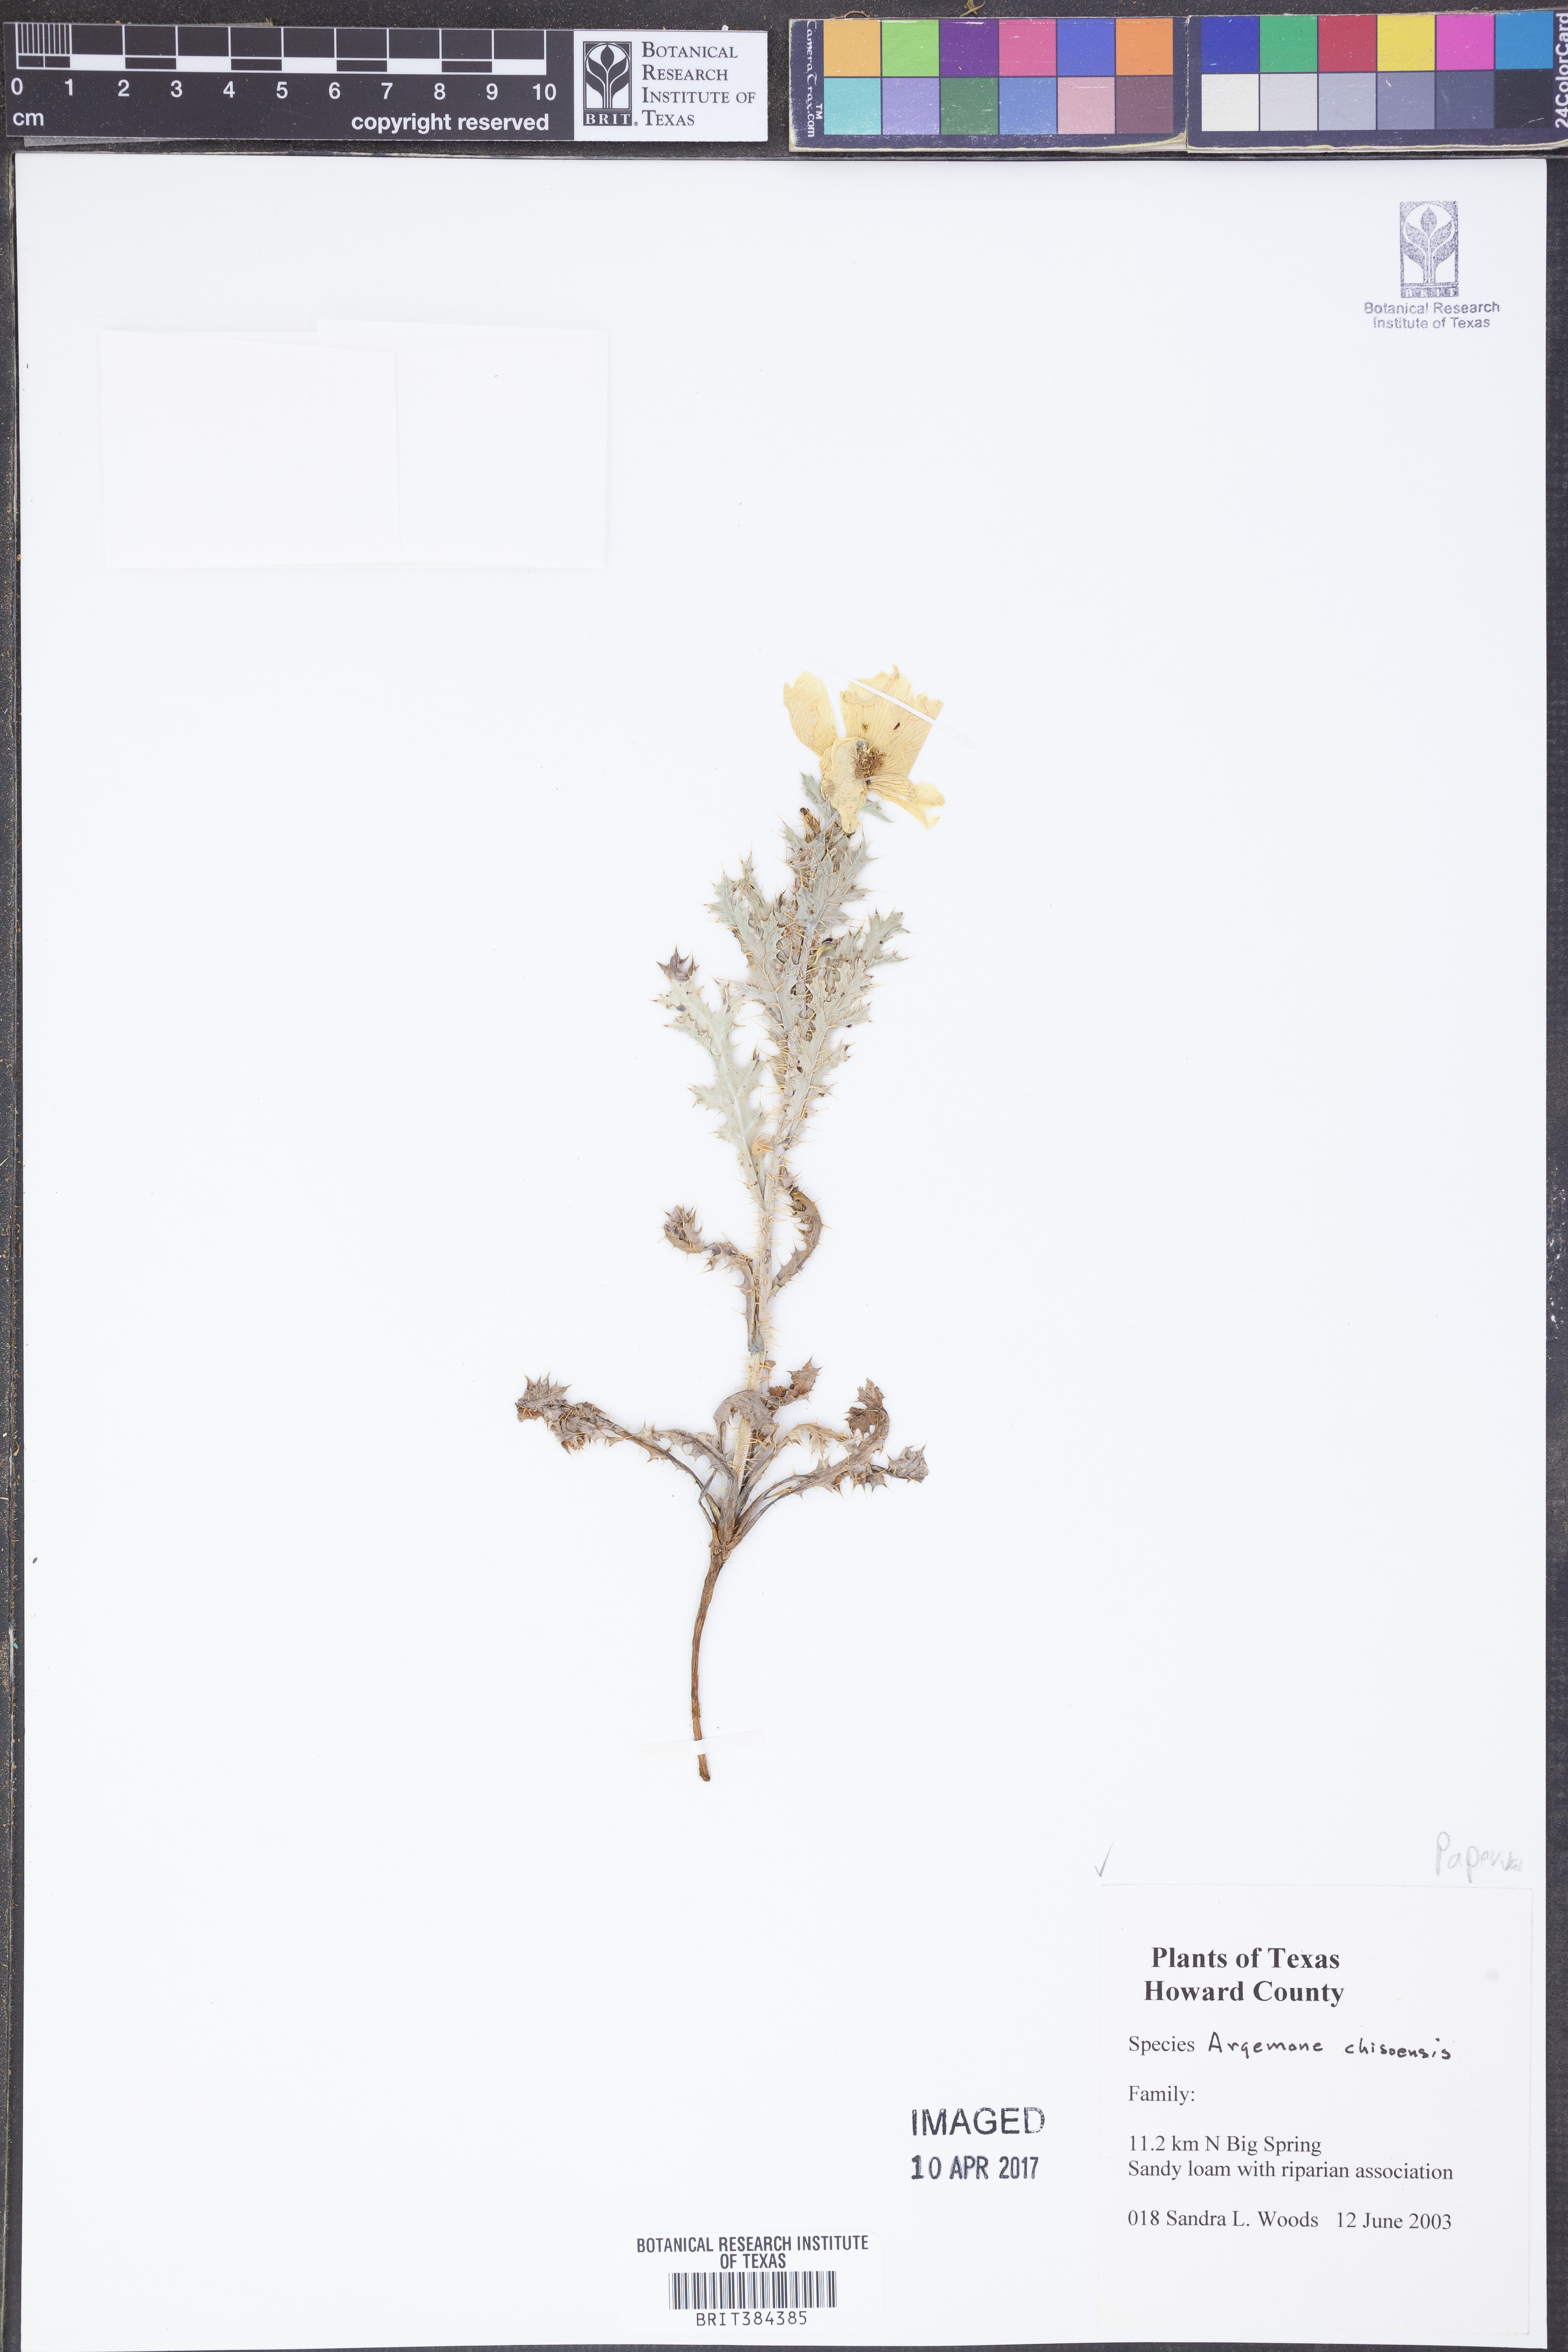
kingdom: Plantae
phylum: Tracheophyta
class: Magnoliopsida
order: Ranunculales
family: Papaveraceae
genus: Argemone
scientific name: Argemone chisosensis
